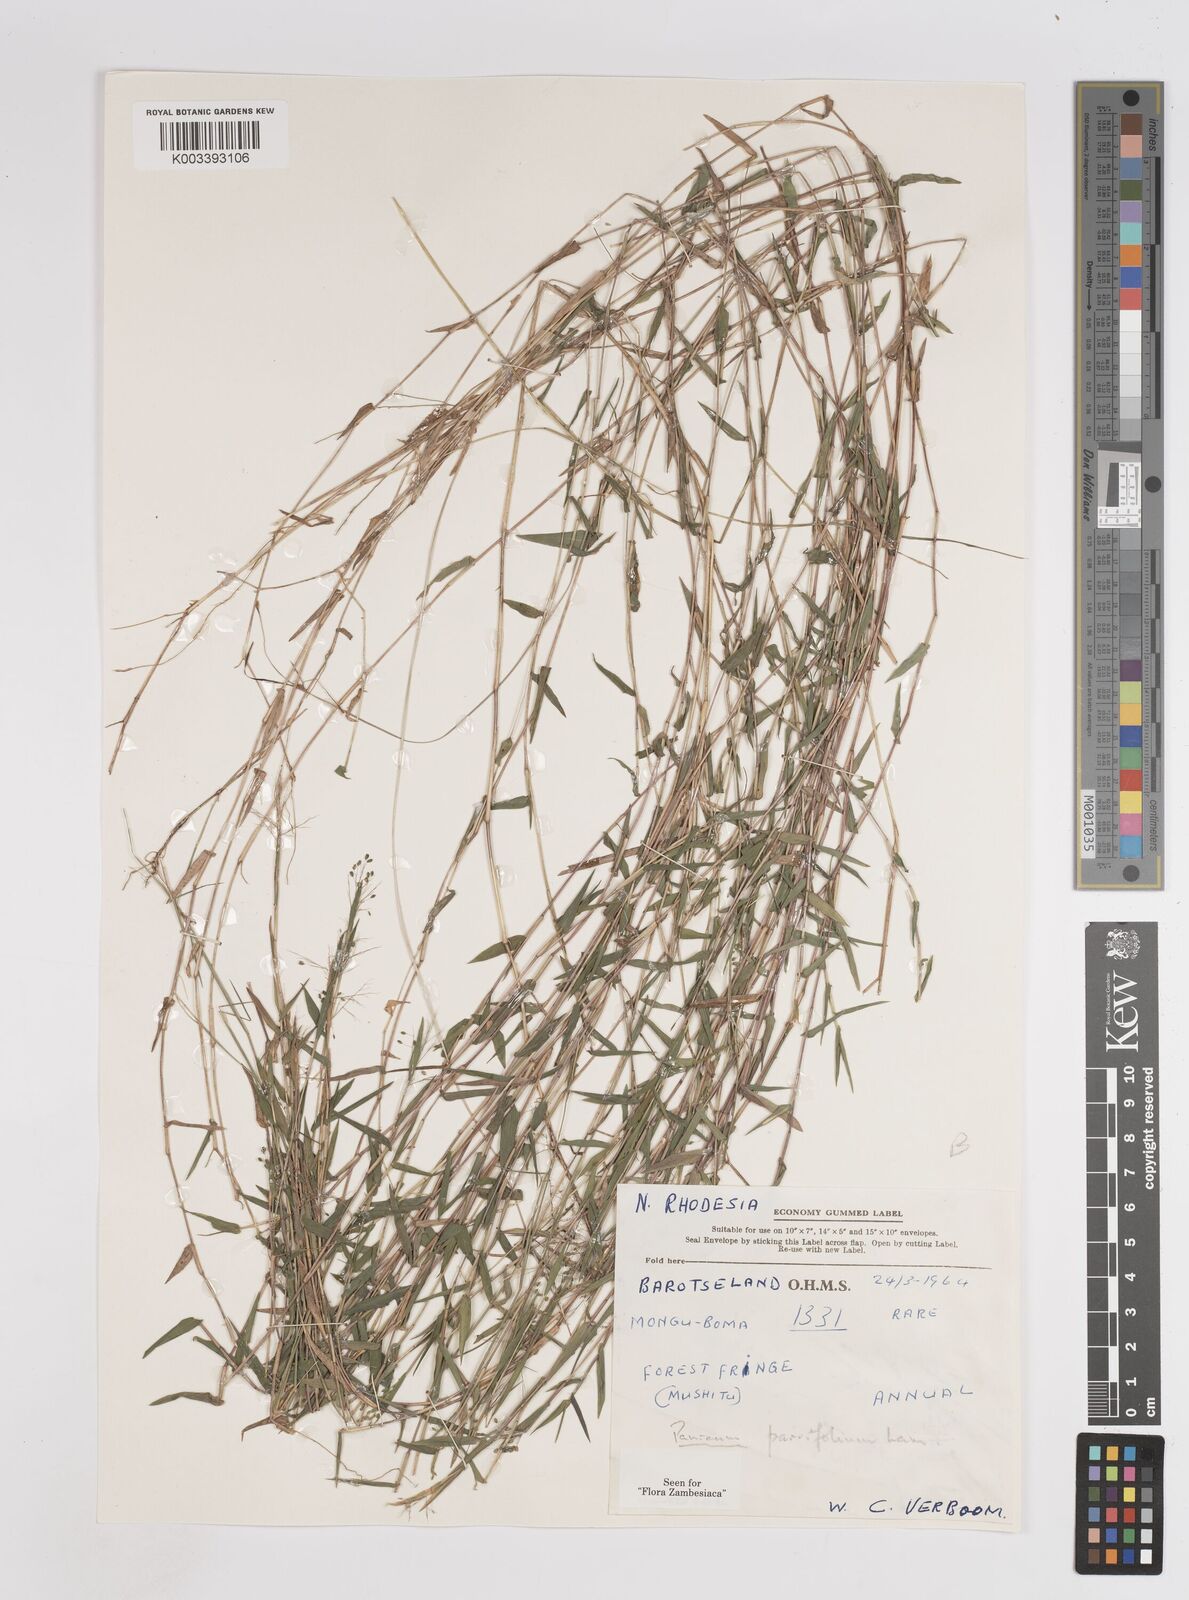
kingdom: Plantae
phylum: Tracheophyta
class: Liliopsida
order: Poales
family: Poaceae
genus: Trichanthecium
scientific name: Trichanthecium parvifolium
